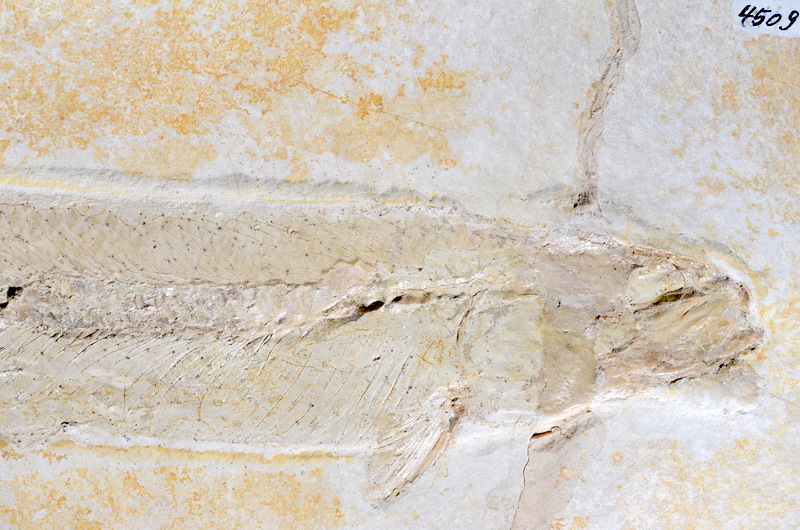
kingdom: Animalia
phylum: Chordata
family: Allothrissopidae
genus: Allothrissops
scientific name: Allothrissops mesogaster
